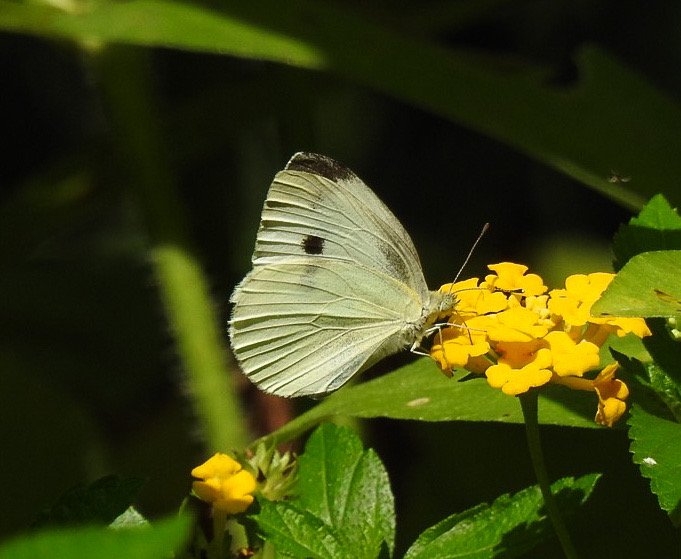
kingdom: Animalia
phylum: Arthropoda
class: Insecta
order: Lepidoptera
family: Pieridae
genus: Pieris
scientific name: Pieris rapae
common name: Cabbage White
